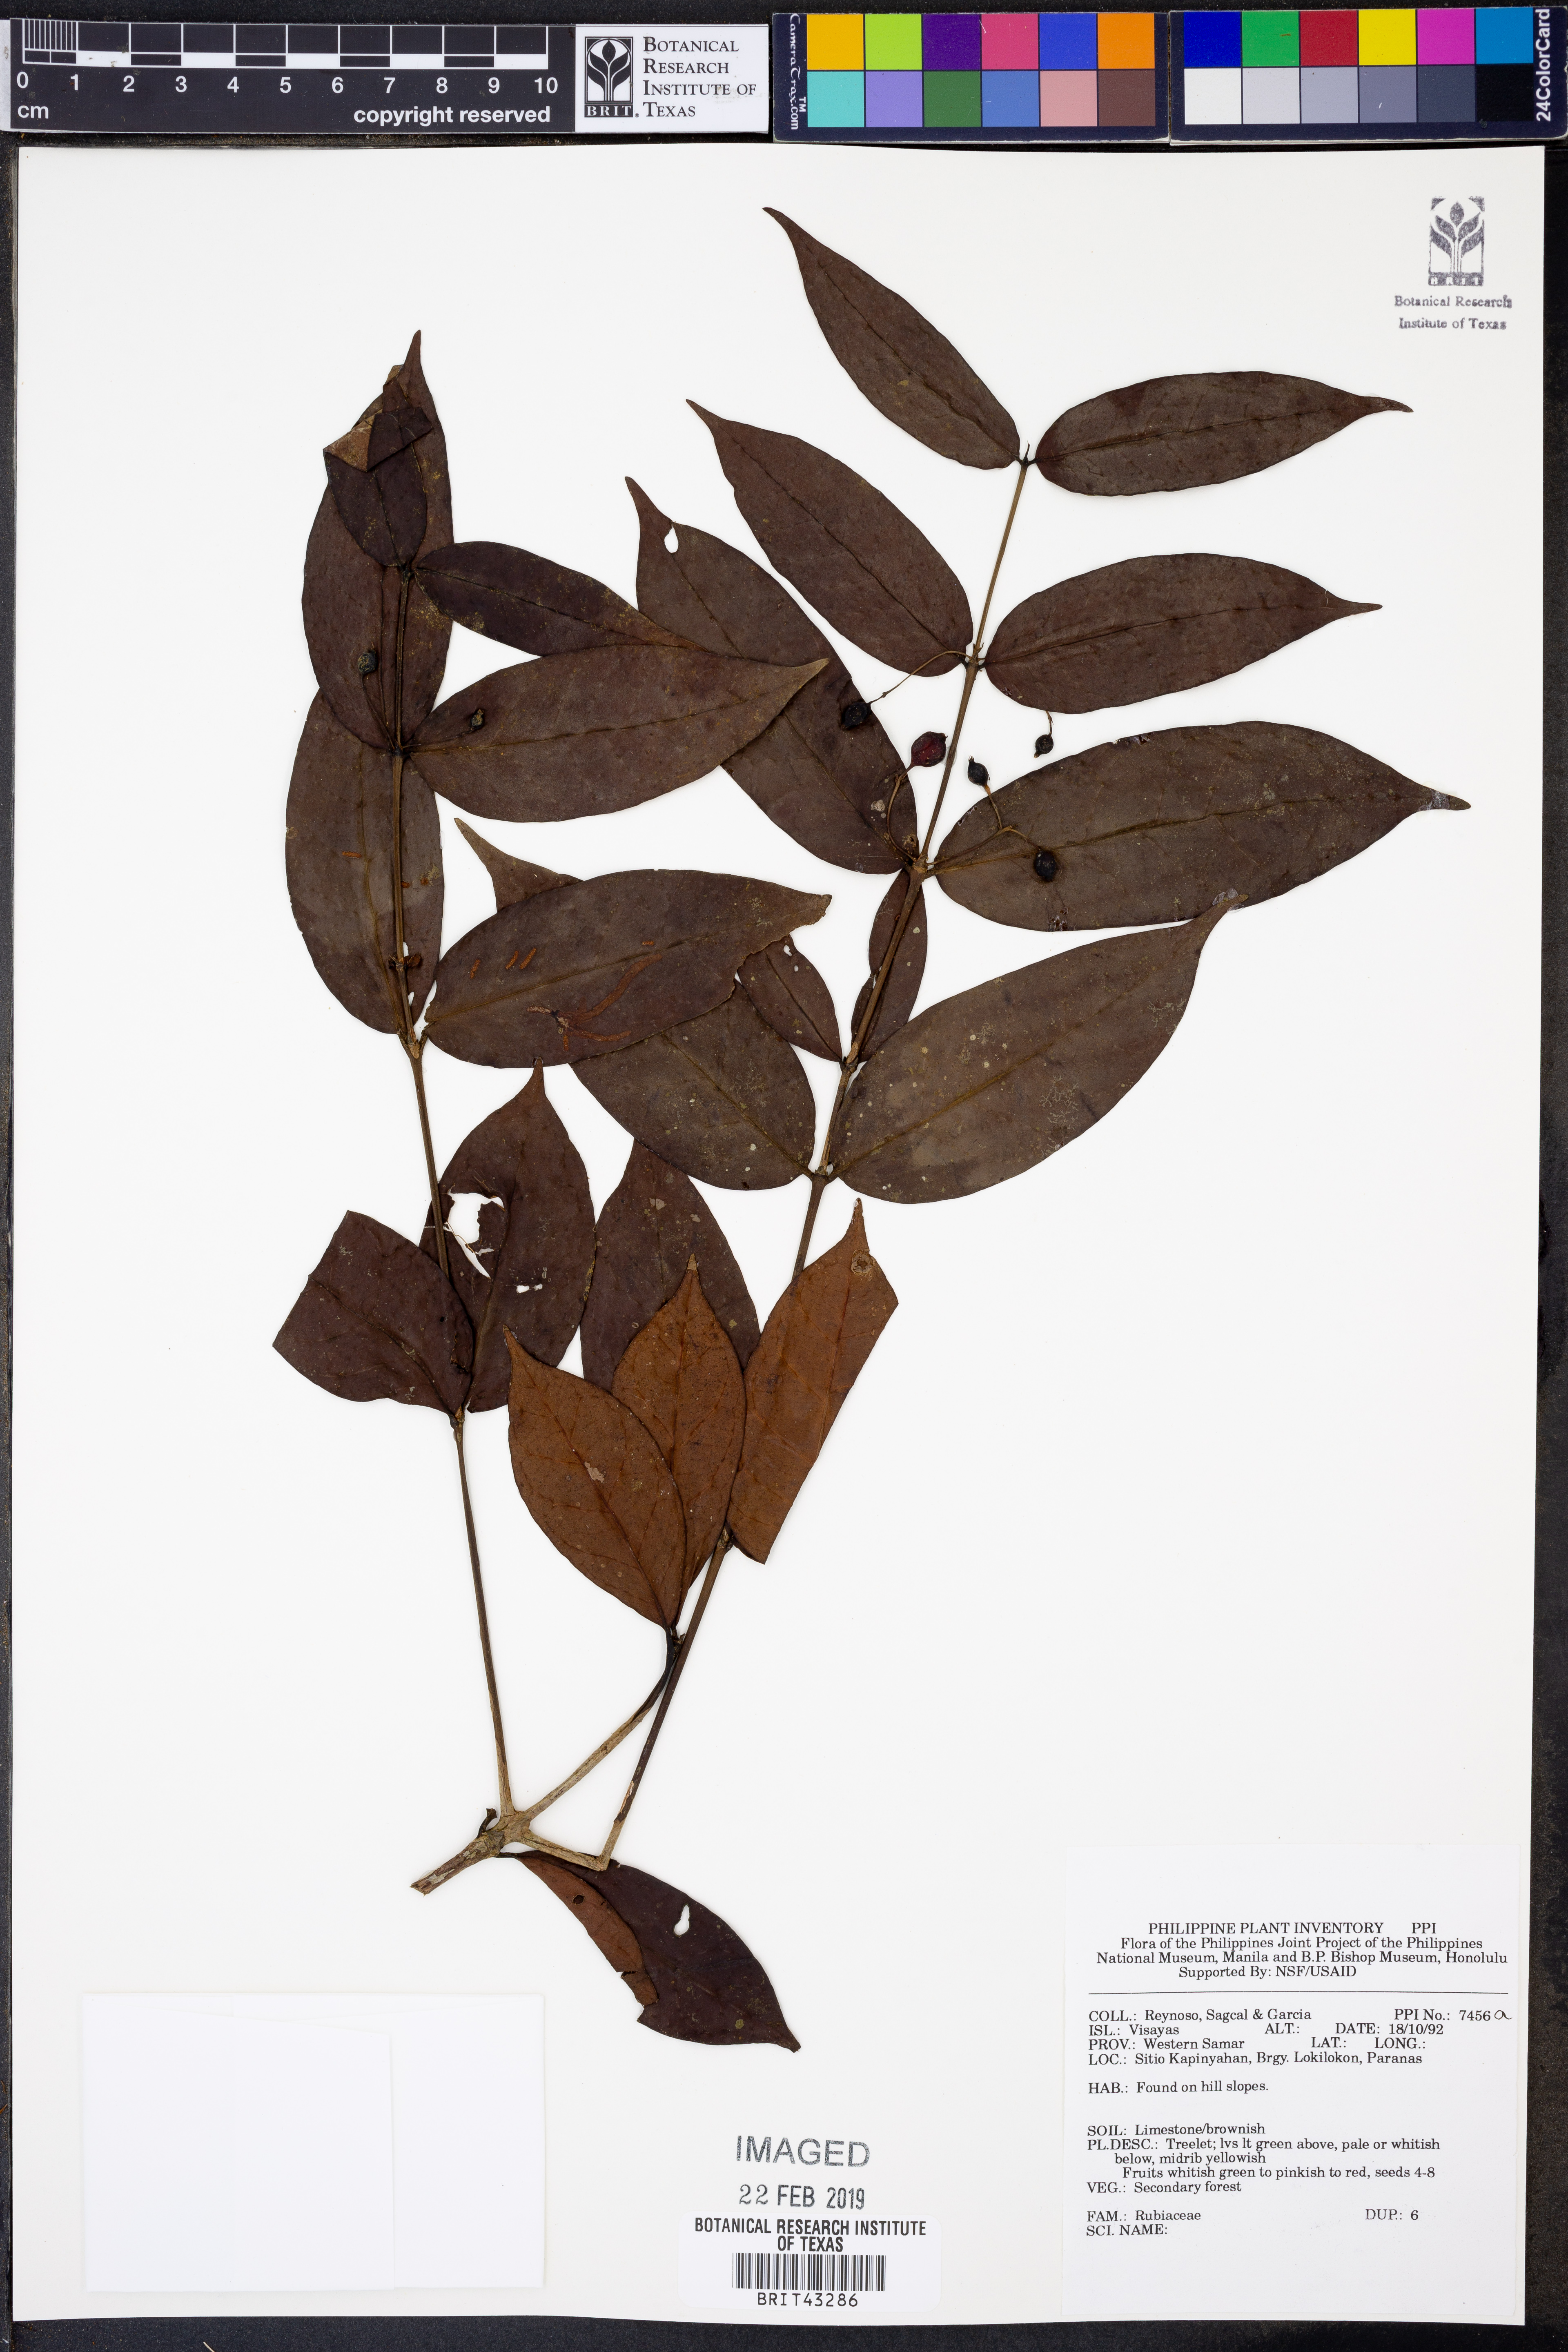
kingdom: Plantae
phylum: Tracheophyta
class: Magnoliopsida
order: Gentianales
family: Rubiaceae
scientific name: Rubiaceae
